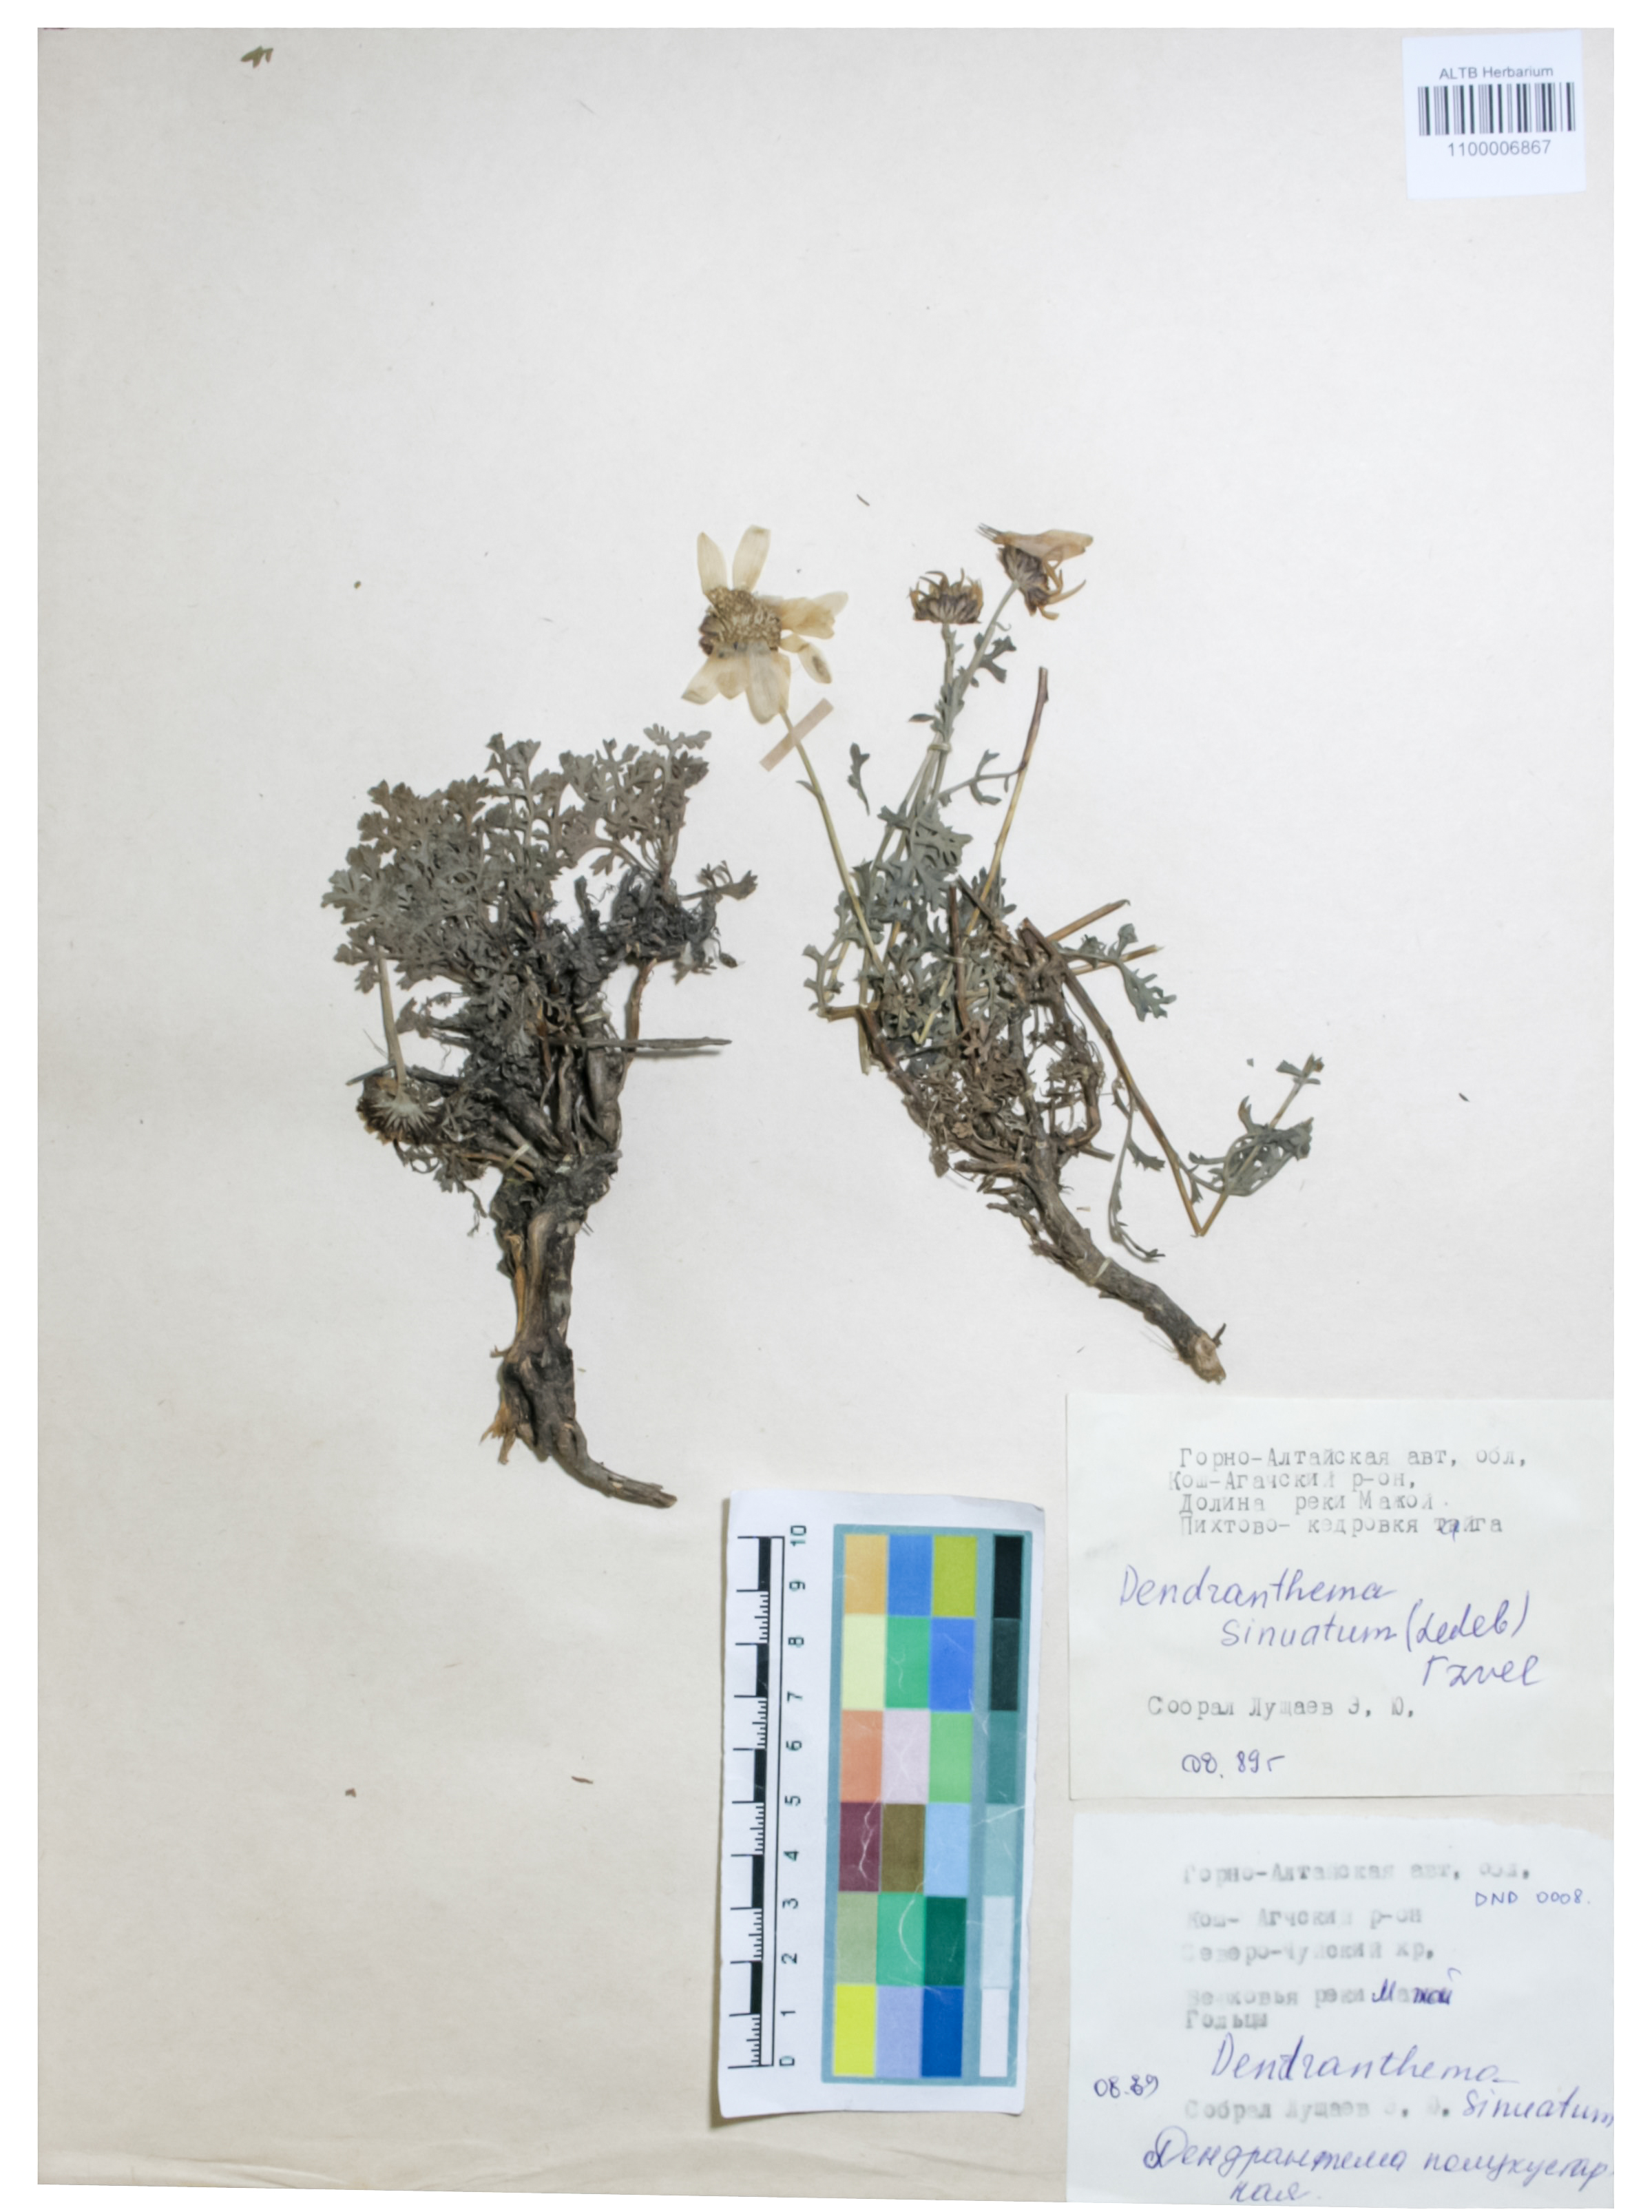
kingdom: Plantae
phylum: Tracheophyta
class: Magnoliopsida
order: Asterales
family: Asteraceae
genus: Chrysanthemum
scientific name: Chrysanthemum sinuatum
